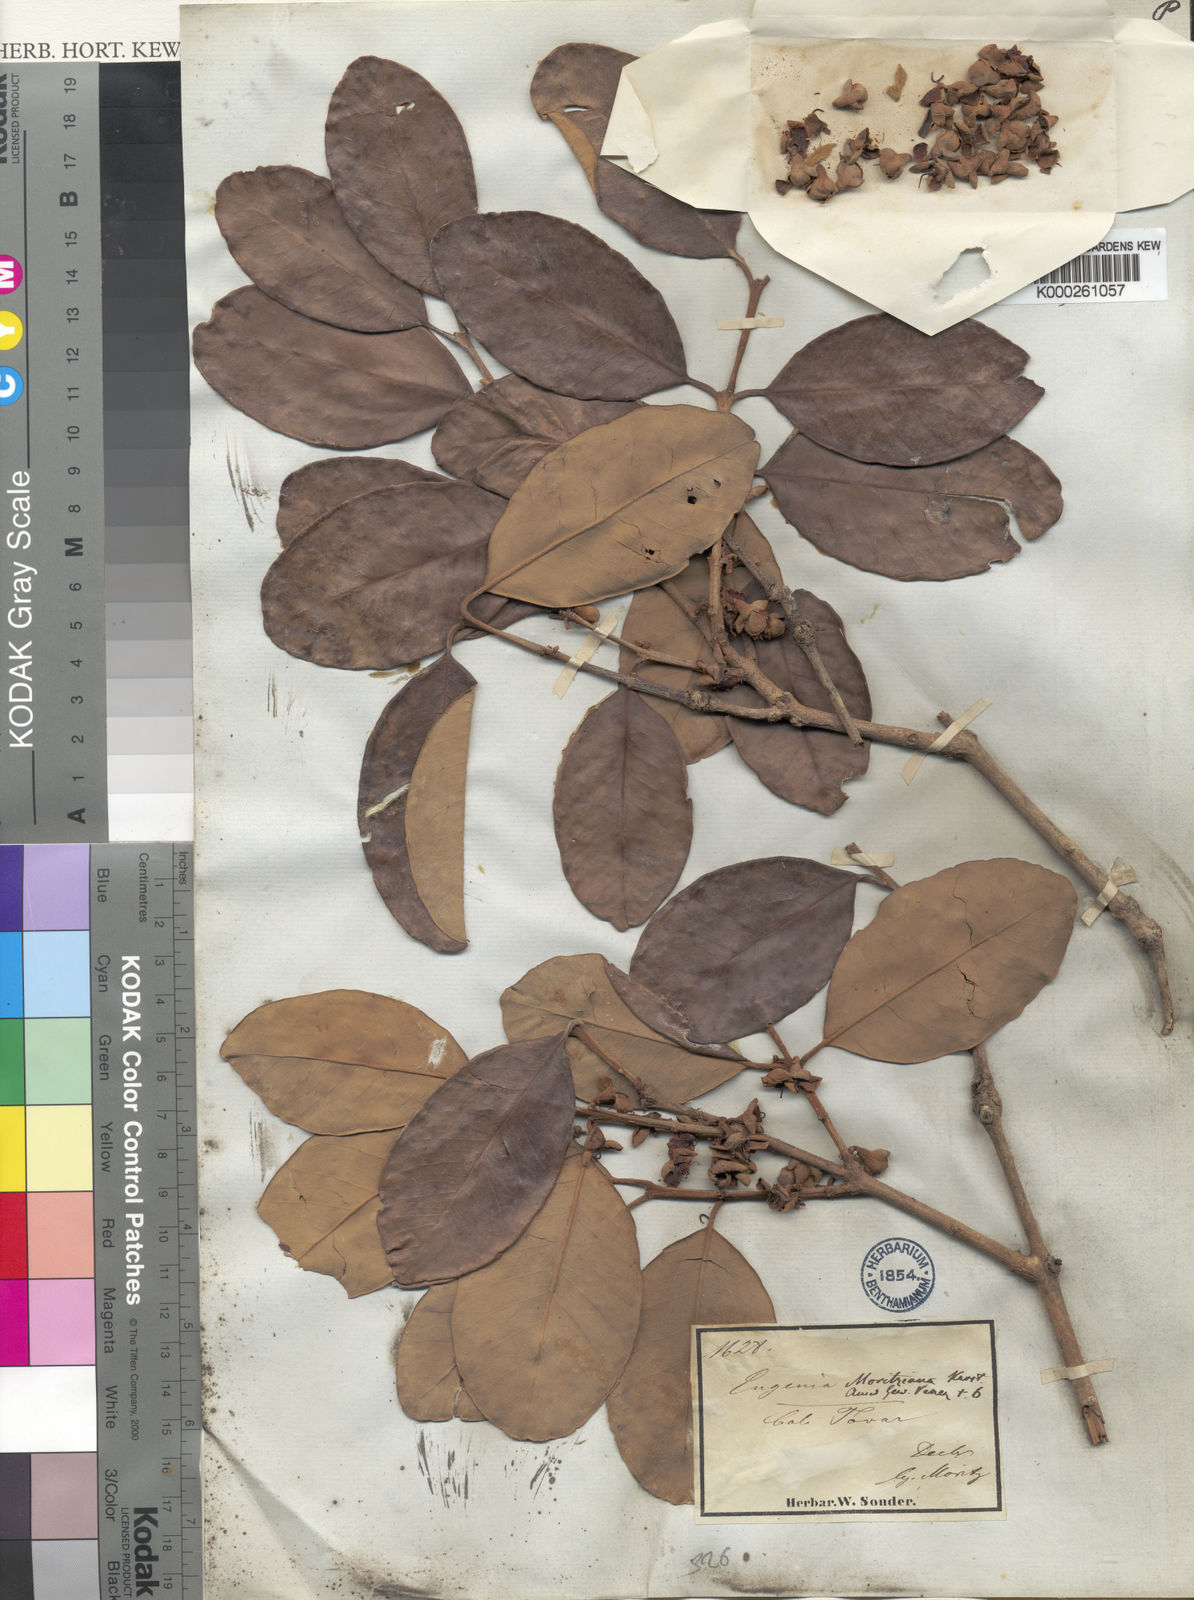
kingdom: Plantae
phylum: Tracheophyta
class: Magnoliopsida
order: Myrtales
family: Myrtaceae
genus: Eugenia
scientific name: Eugenia moritziana
